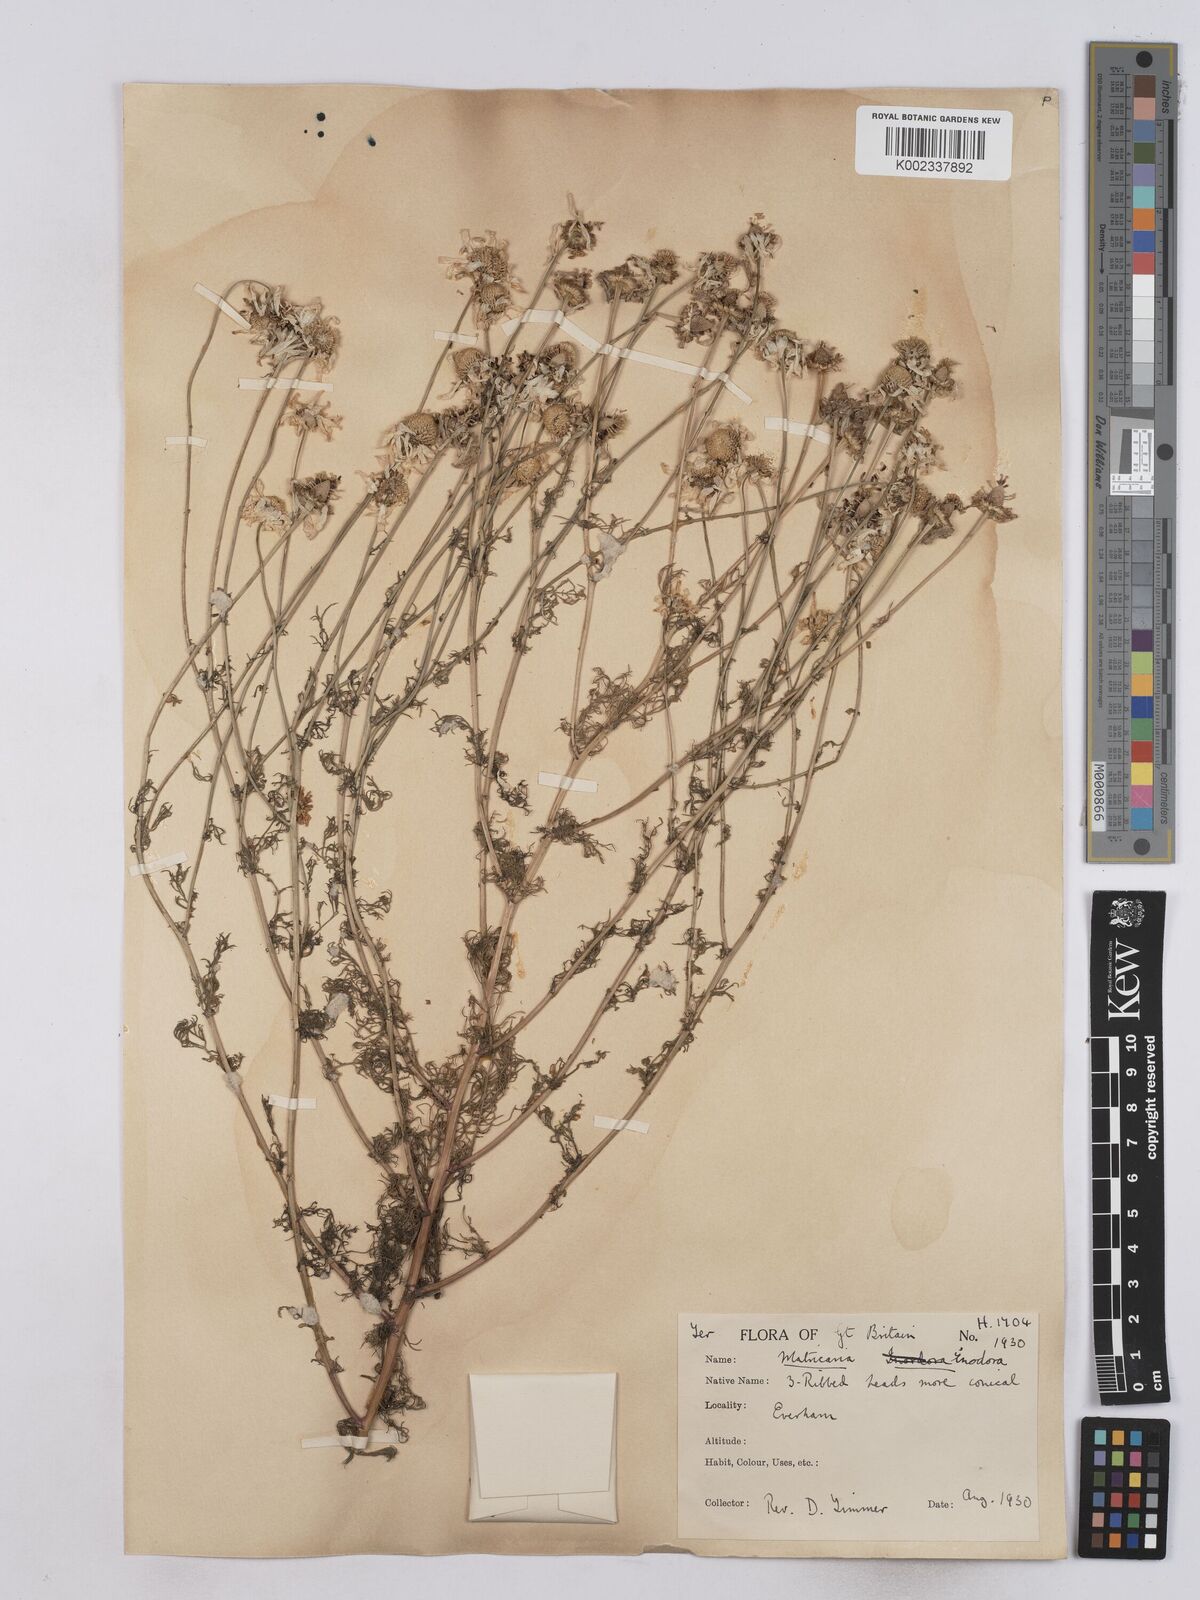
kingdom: Plantae
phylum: Tracheophyta
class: Magnoliopsida
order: Asterales
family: Asteraceae
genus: Matricaria
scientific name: Matricaria discoidea
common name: Disc mayweed
